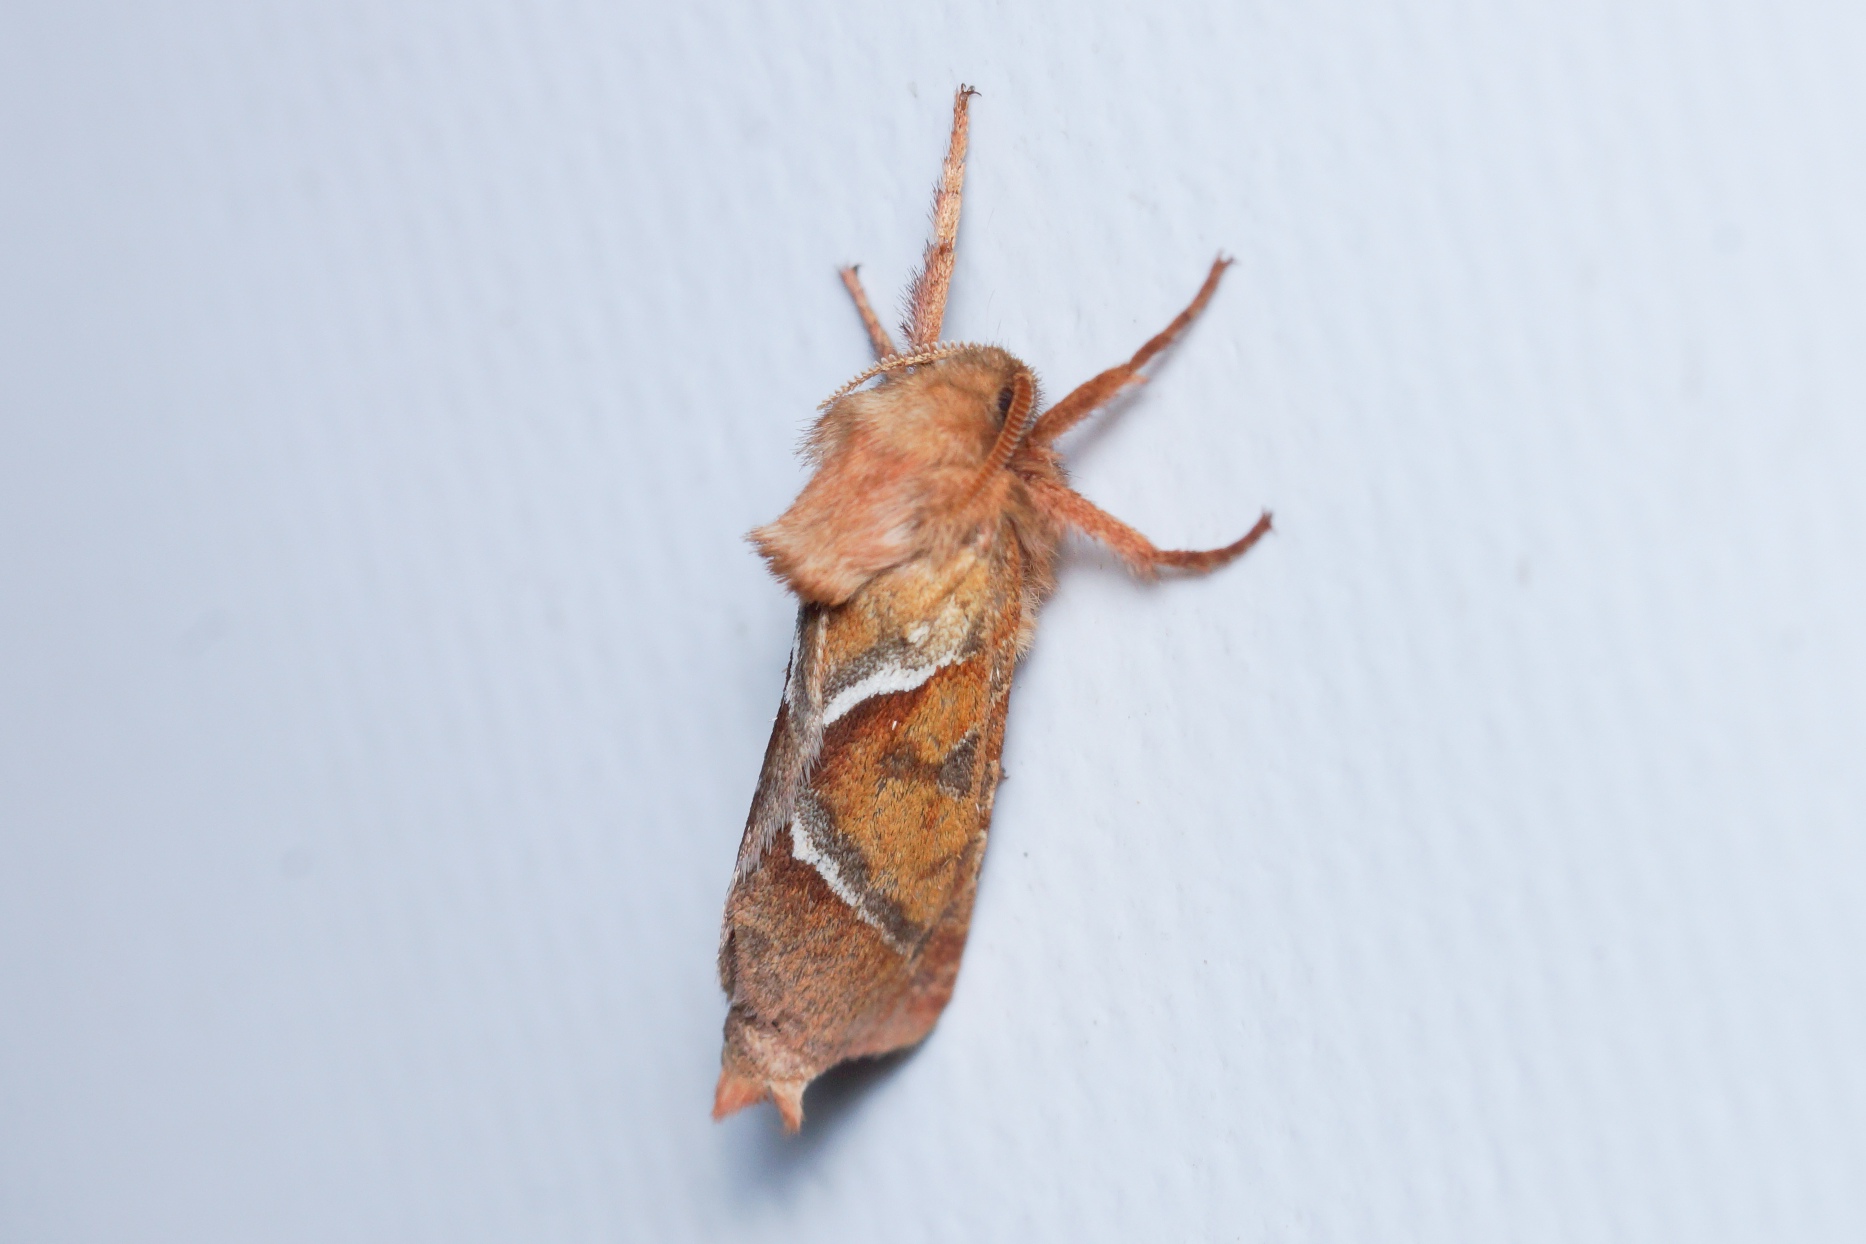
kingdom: Animalia
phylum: Arthropoda
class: Insecta
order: Lepidoptera
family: Hepialidae
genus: Triodia
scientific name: Triodia sylvina
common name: Skræpperodæder
